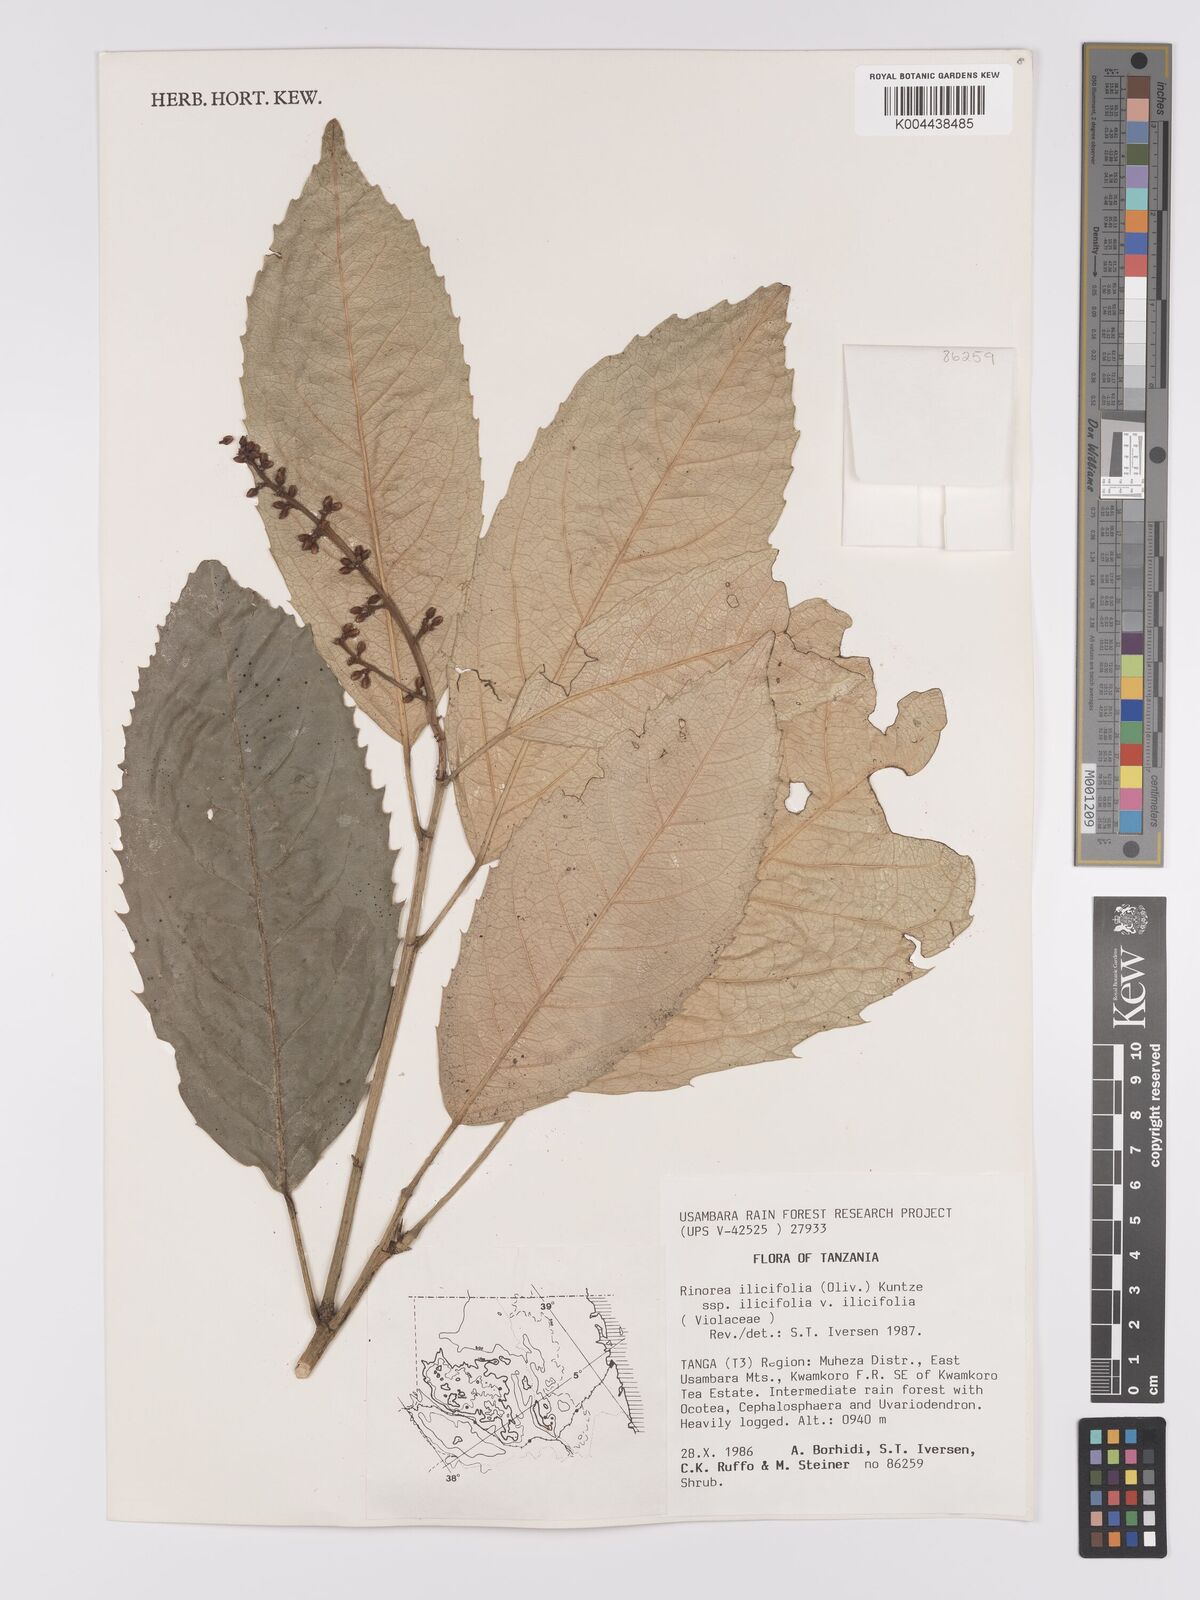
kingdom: Plantae
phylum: Tracheophyta
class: Magnoliopsida
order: Malpighiales
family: Violaceae
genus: Rinorea
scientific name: Rinorea ilicifolia
